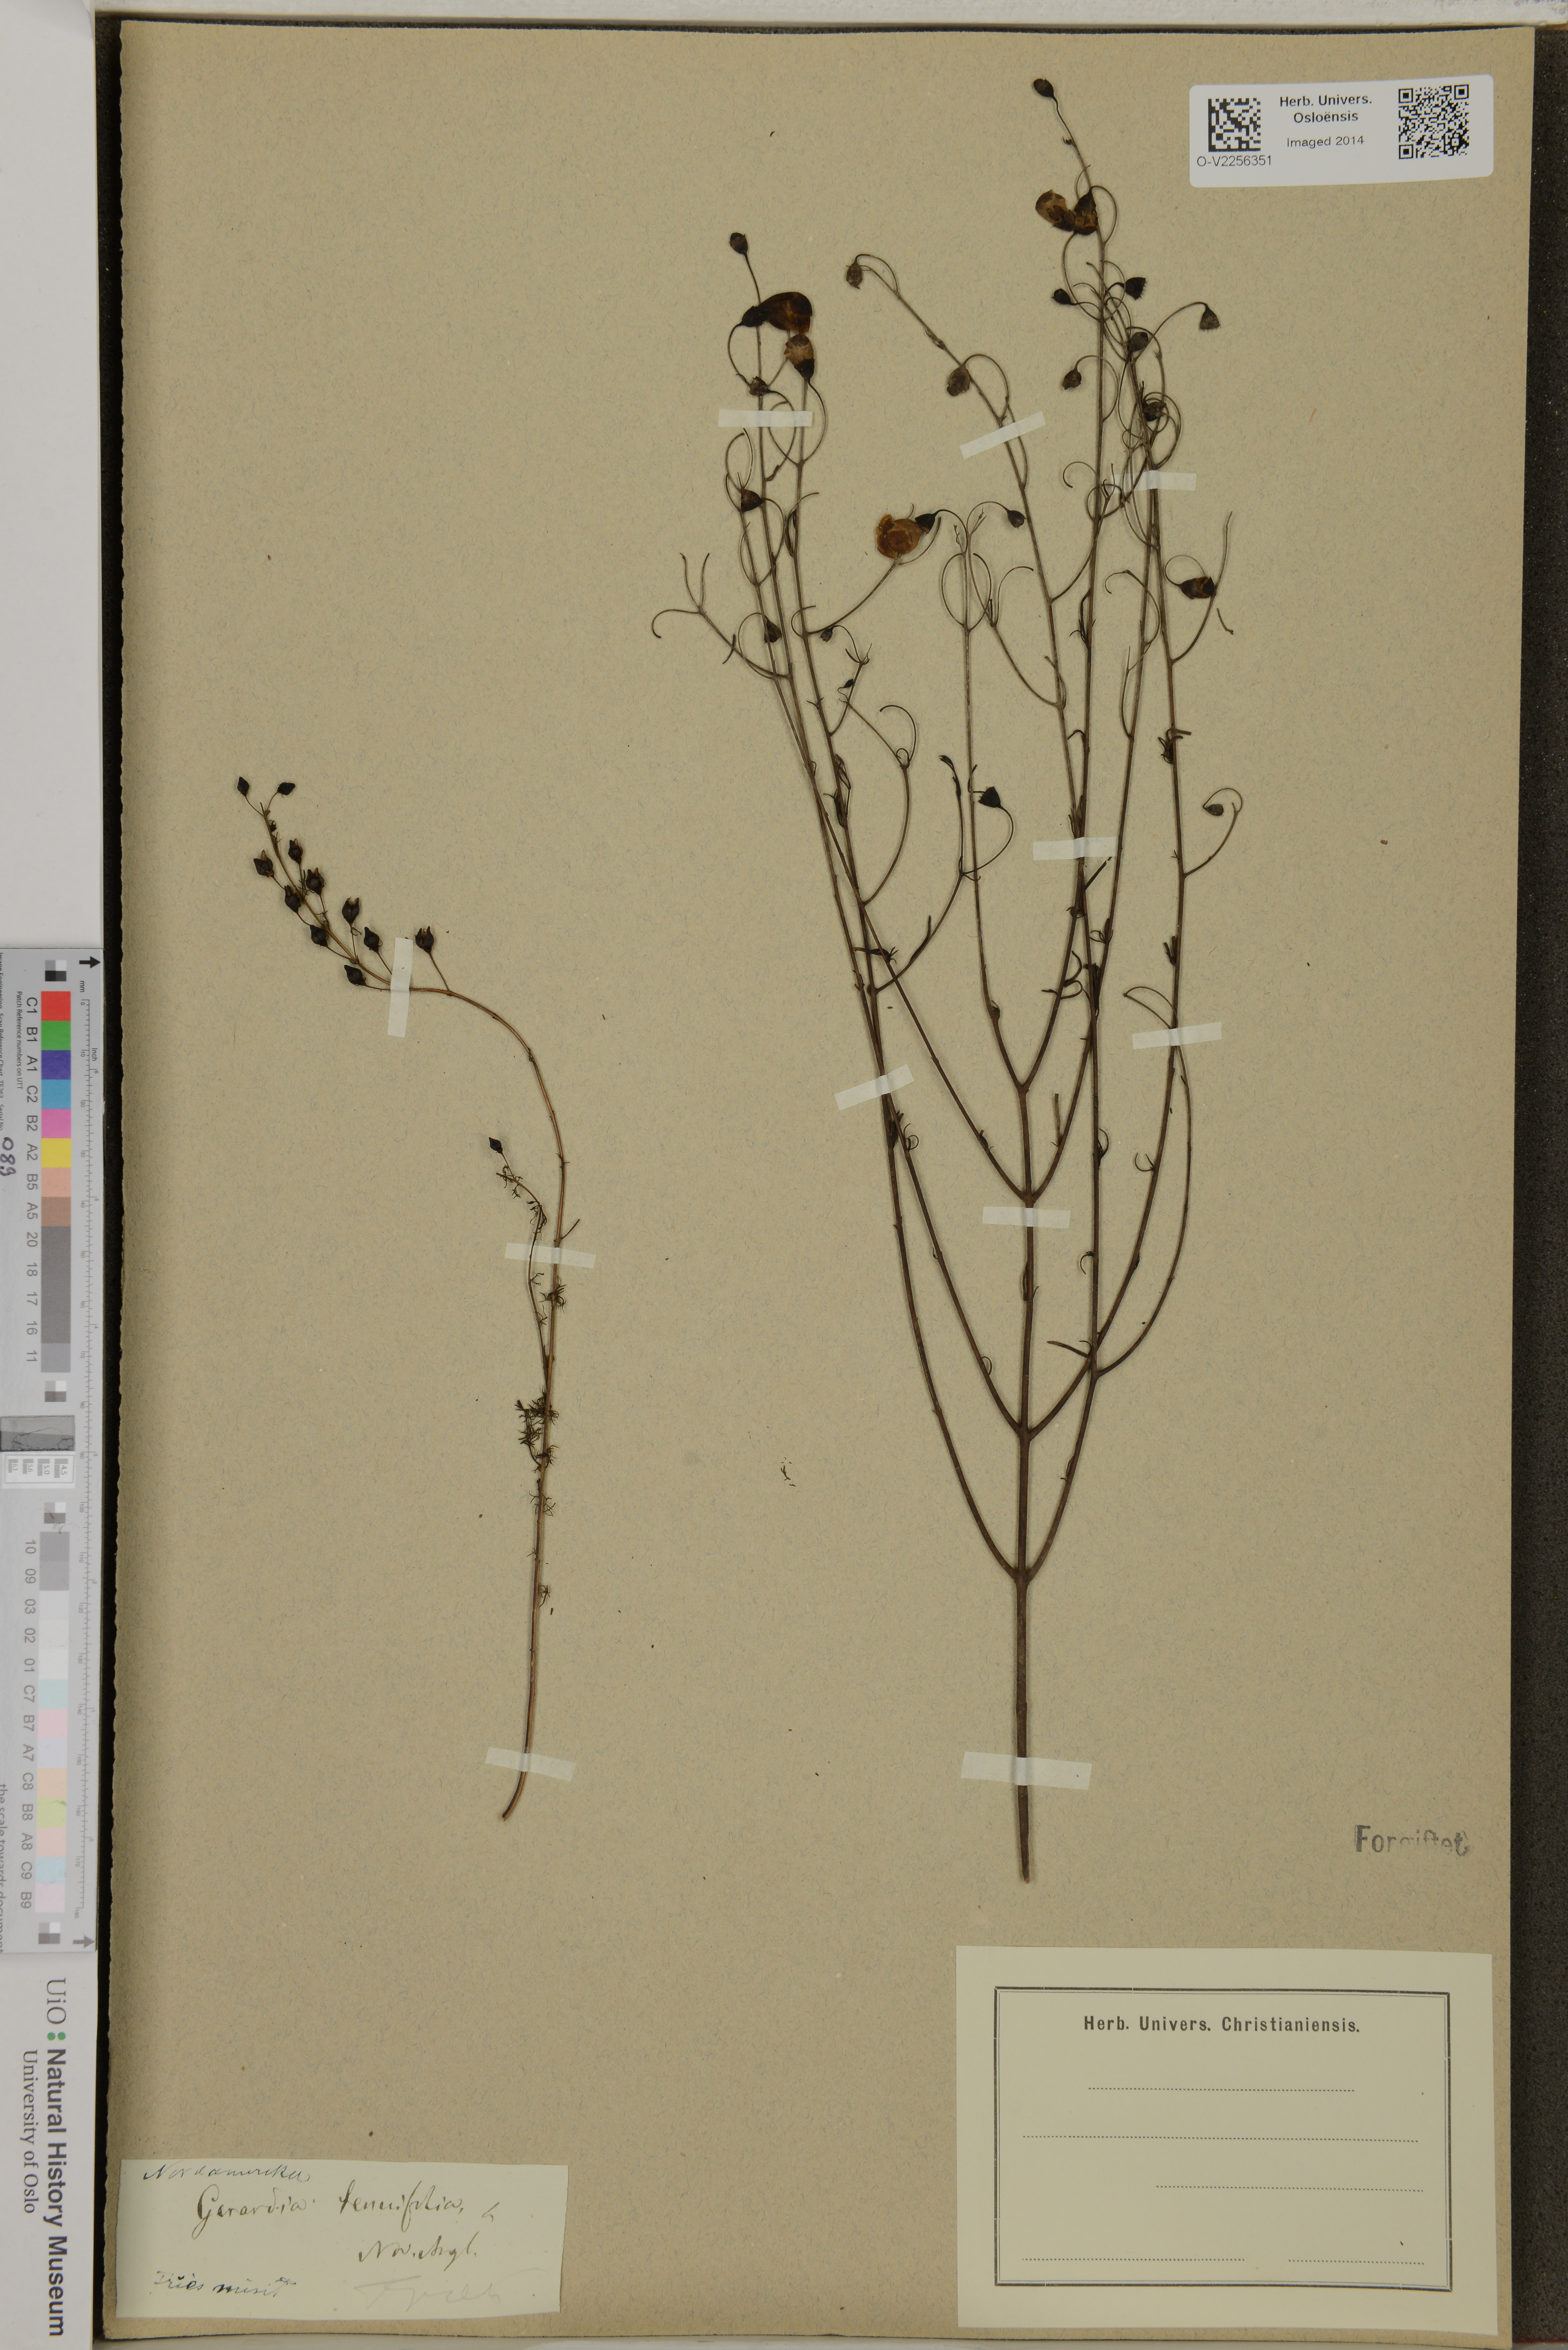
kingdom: Plantae
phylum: Tracheophyta
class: Magnoliopsida
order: Lamiales
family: Orobanchaceae
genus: Agalinis
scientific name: Agalinis tenuifolia
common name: Slender agalinis
